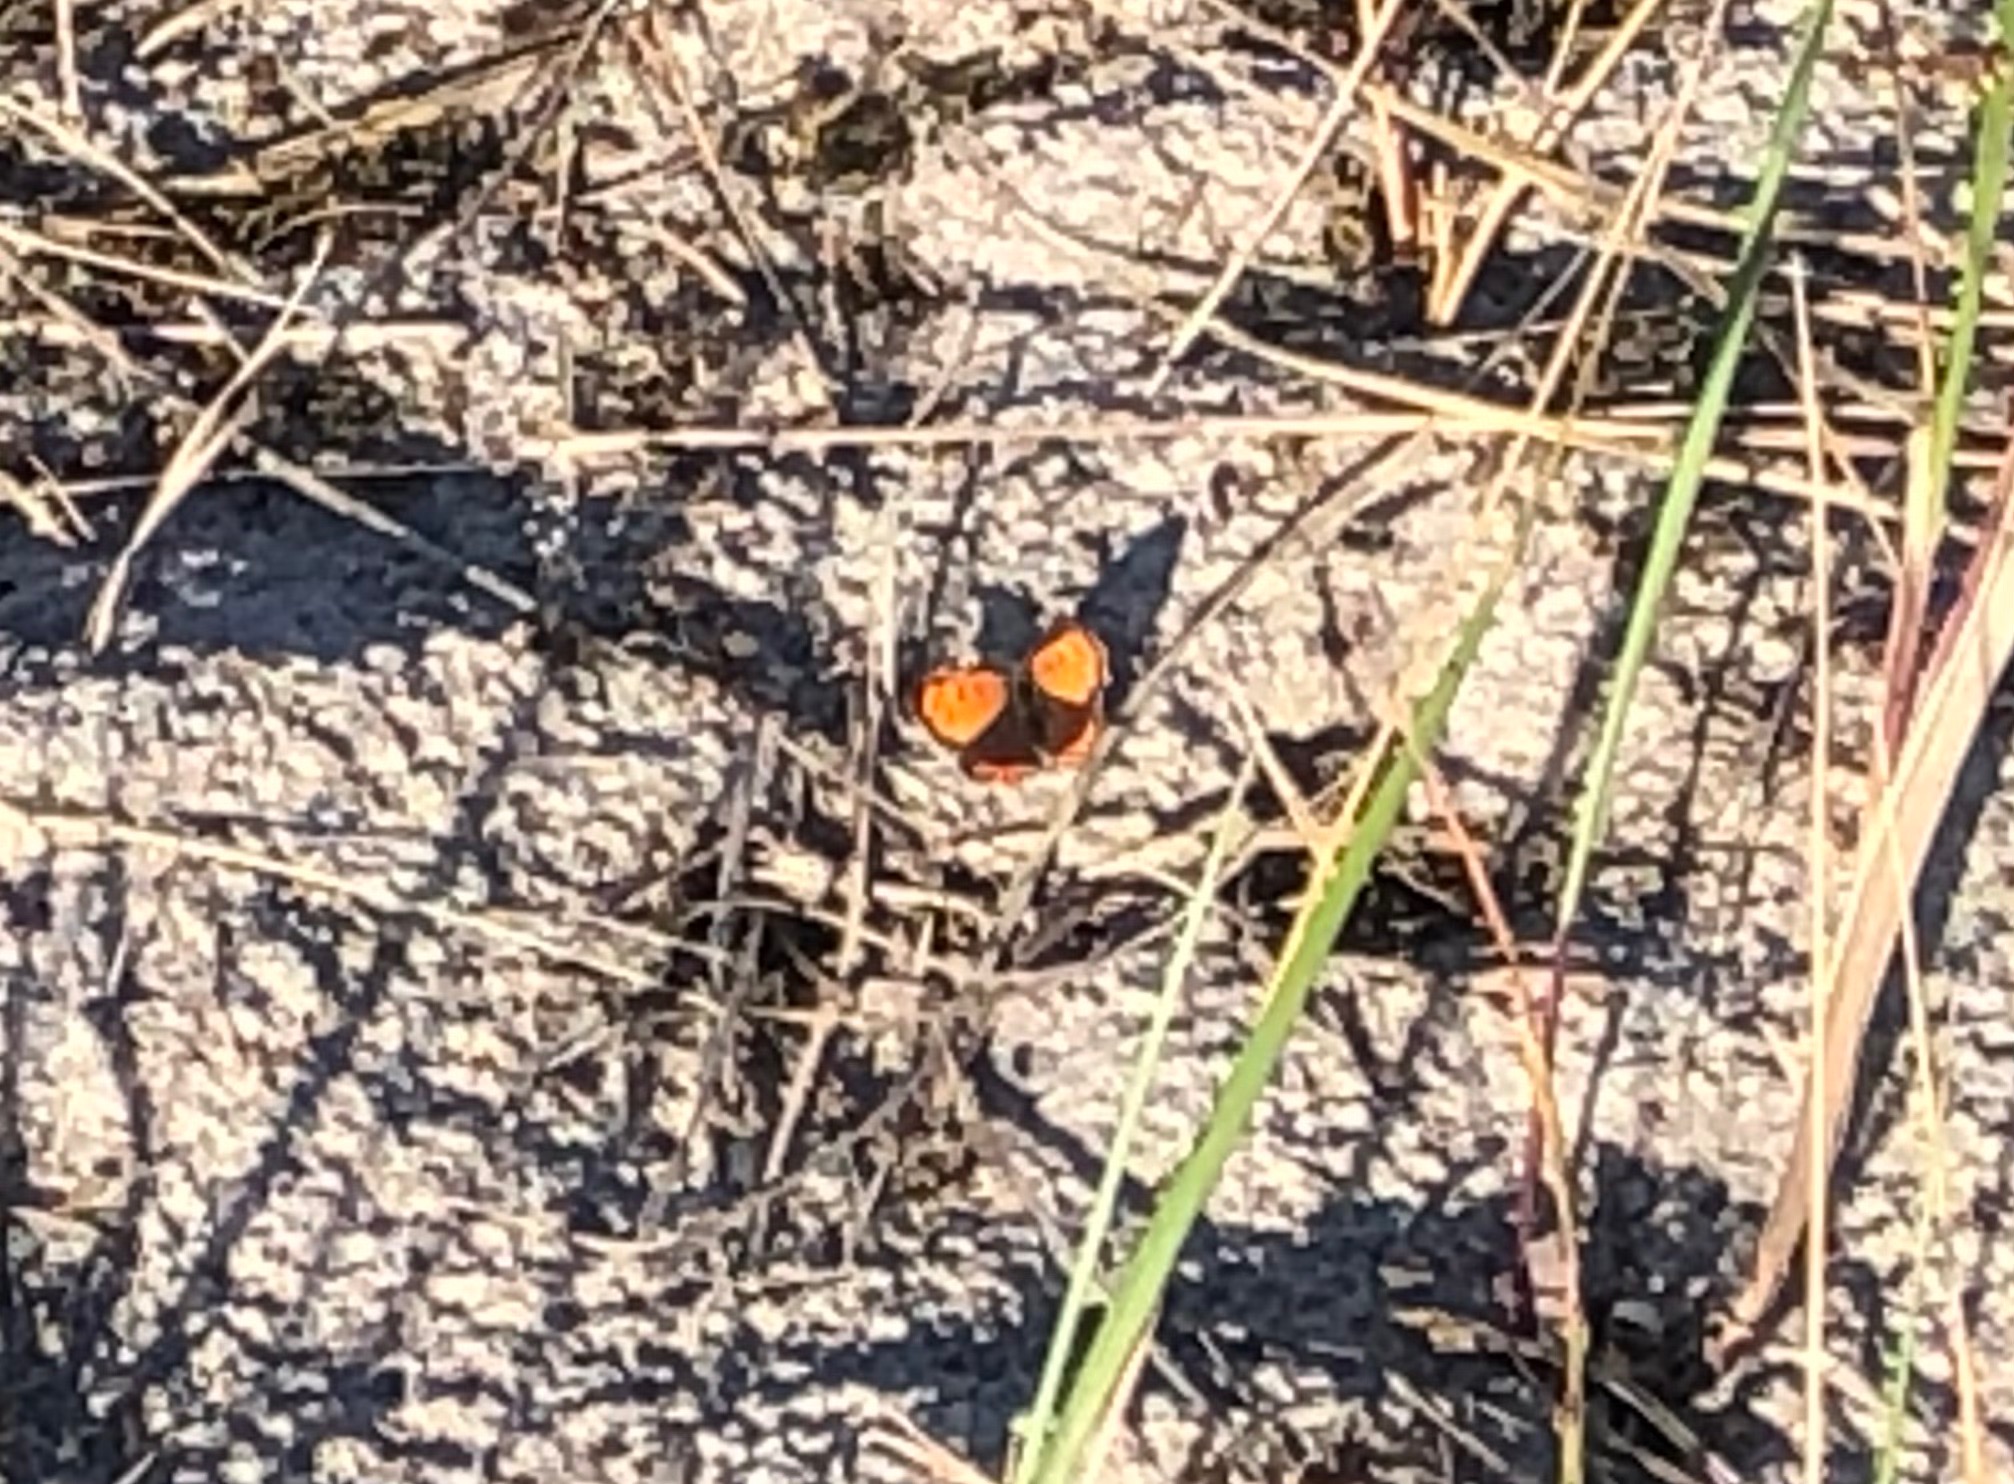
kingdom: Animalia
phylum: Arthropoda
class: Insecta
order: Lepidoptera
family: Lycaenidae
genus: Lycaena
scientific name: Lycaena phlaeas
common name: Lille ildfugl
